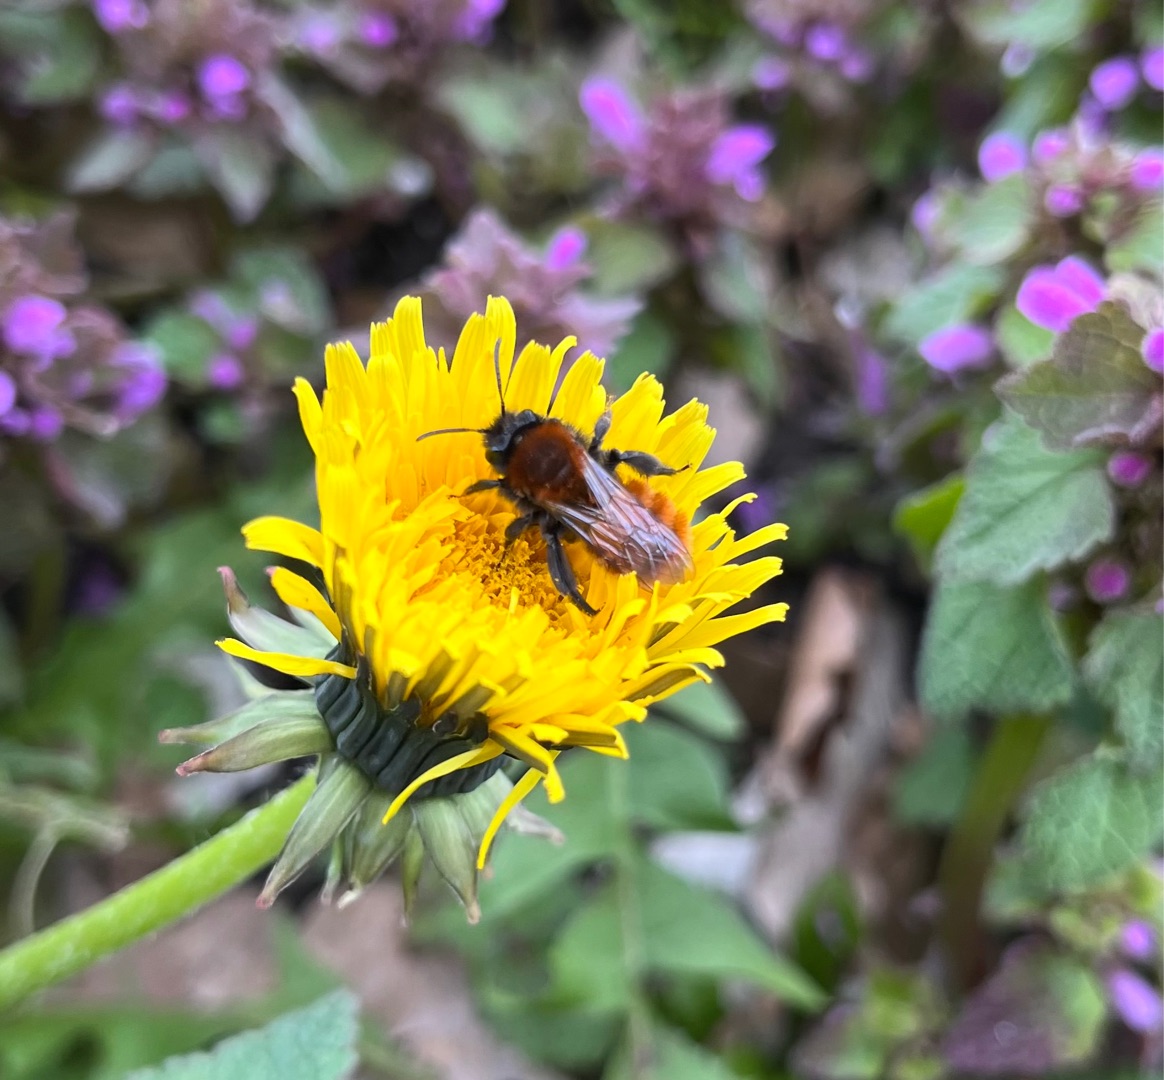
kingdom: Animalia
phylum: Arthropoda
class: Insecta
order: Hymenoptera
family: Andrenidae
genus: Andrena
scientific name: Andrena fulva
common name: Rødpelset jordbi
